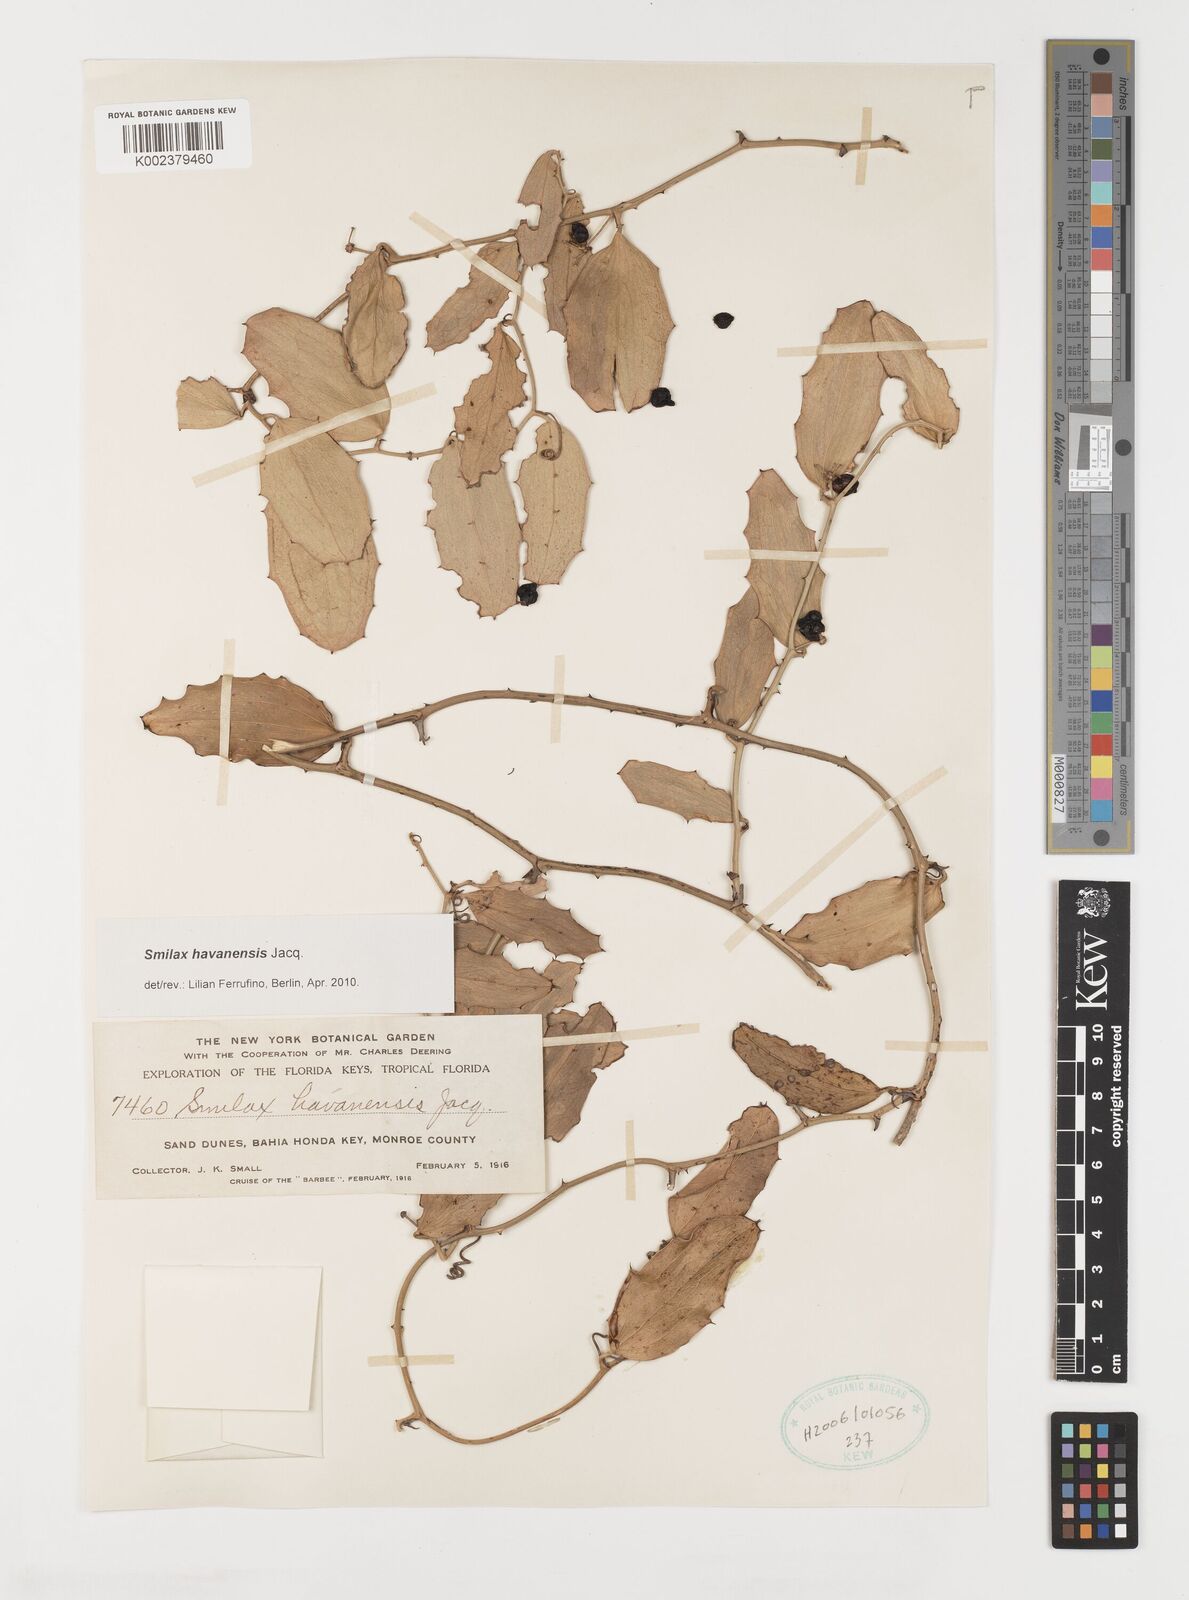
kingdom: Plantae
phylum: Tracheophyta
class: Liliopsida
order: Liliales
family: Smilacaceae
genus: Smilax
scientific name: Smilax havanensis
